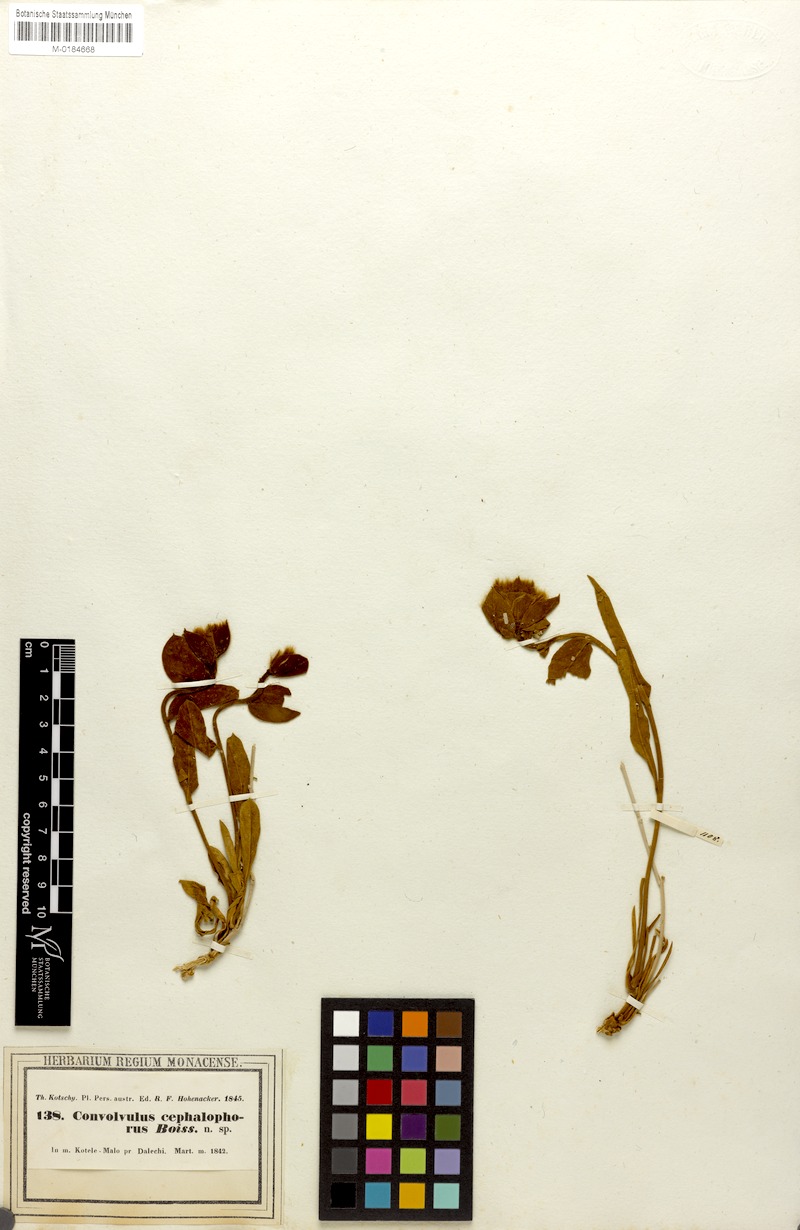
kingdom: Plantae
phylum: Tracheophyta
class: Magnoliopsida
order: Solanales
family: Convolvulaceae
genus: Convolvulus
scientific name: Convolvulus cephalophorus
